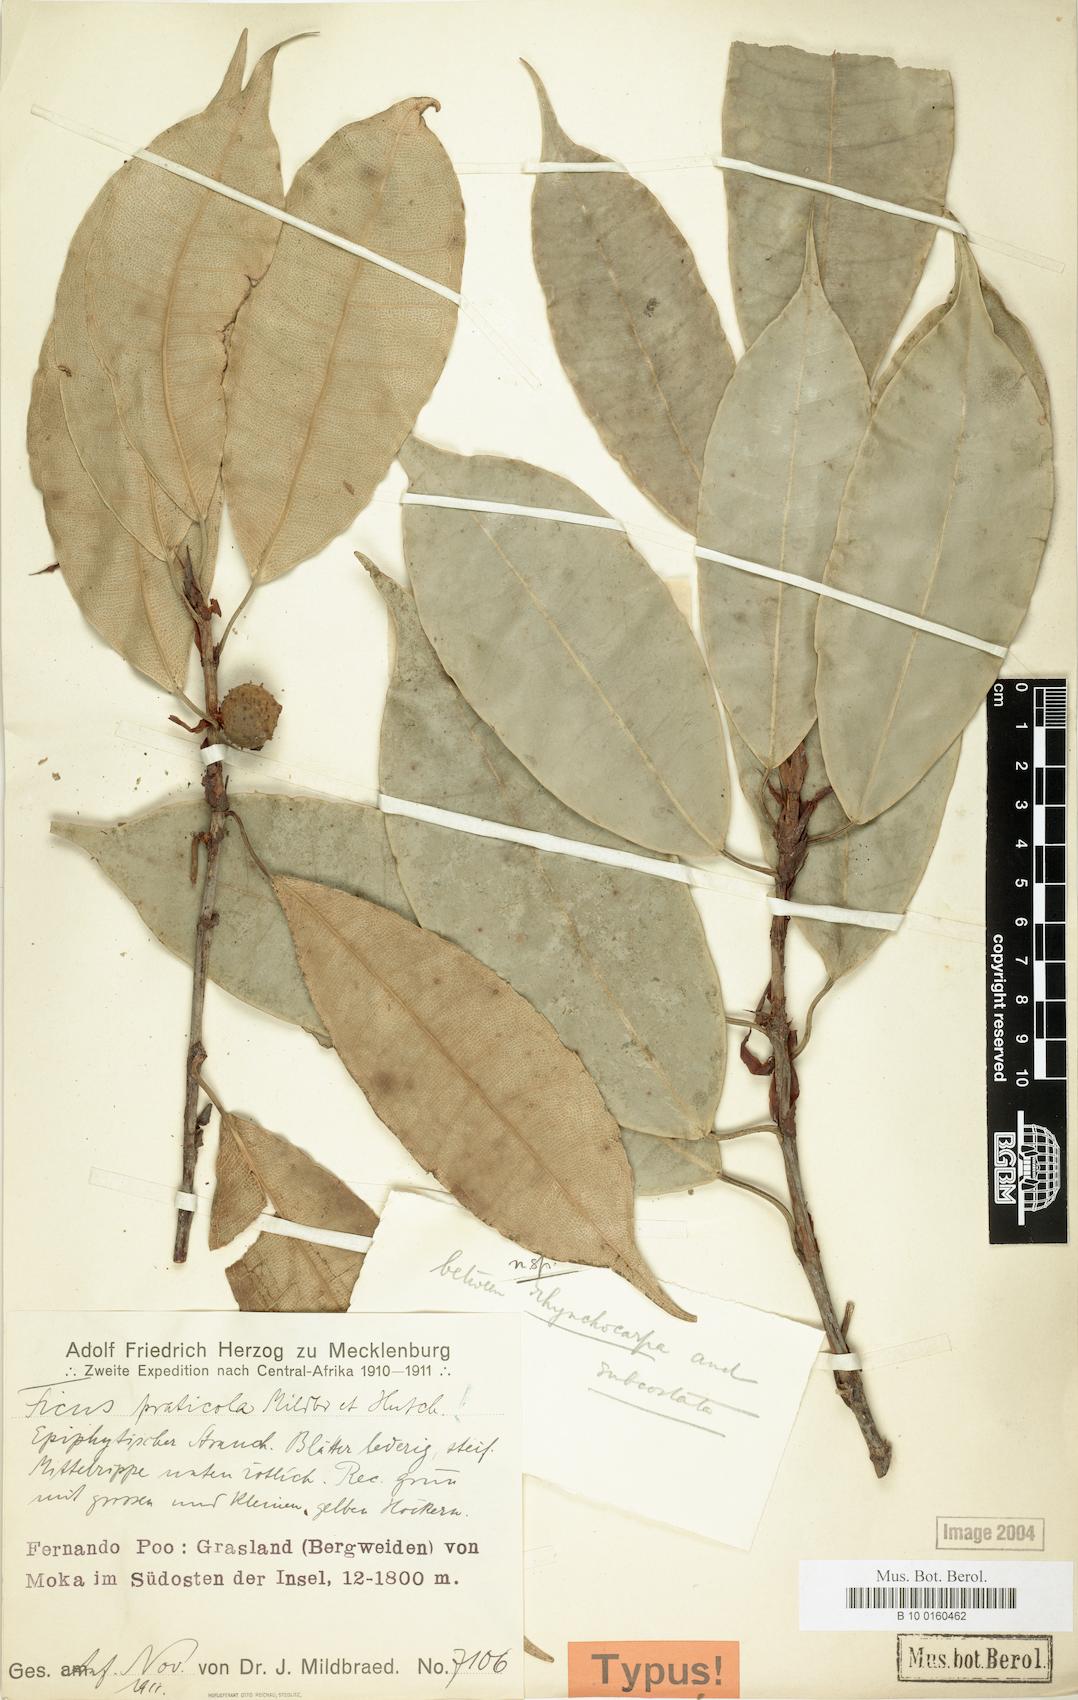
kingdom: Plantae
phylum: Tracheophyta
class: Magnoliopsida
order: Rosales
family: Moraceae
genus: Ficus
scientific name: Ficus conraui
